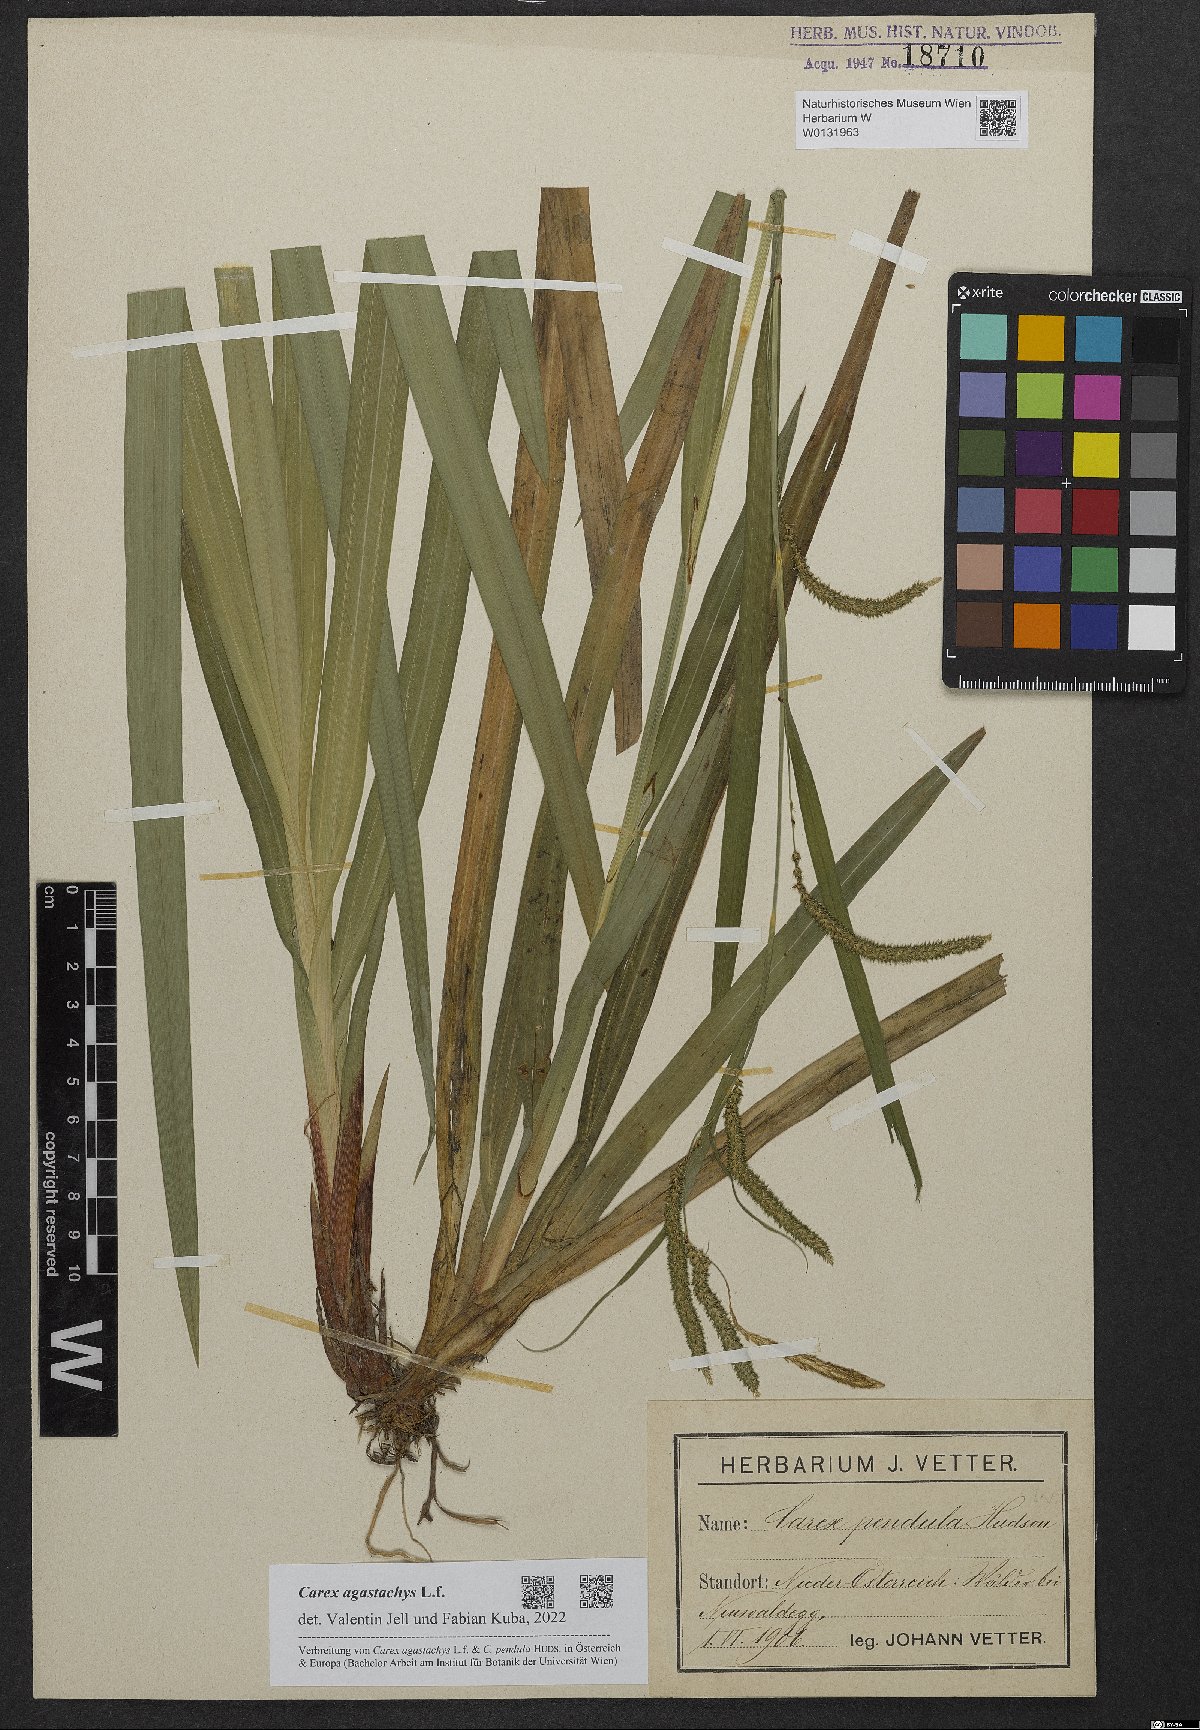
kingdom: Plantae
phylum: Tracheophyta
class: Liliopsida
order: Poales
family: Cyperaceae
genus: Carex
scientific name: Carex agastachys
